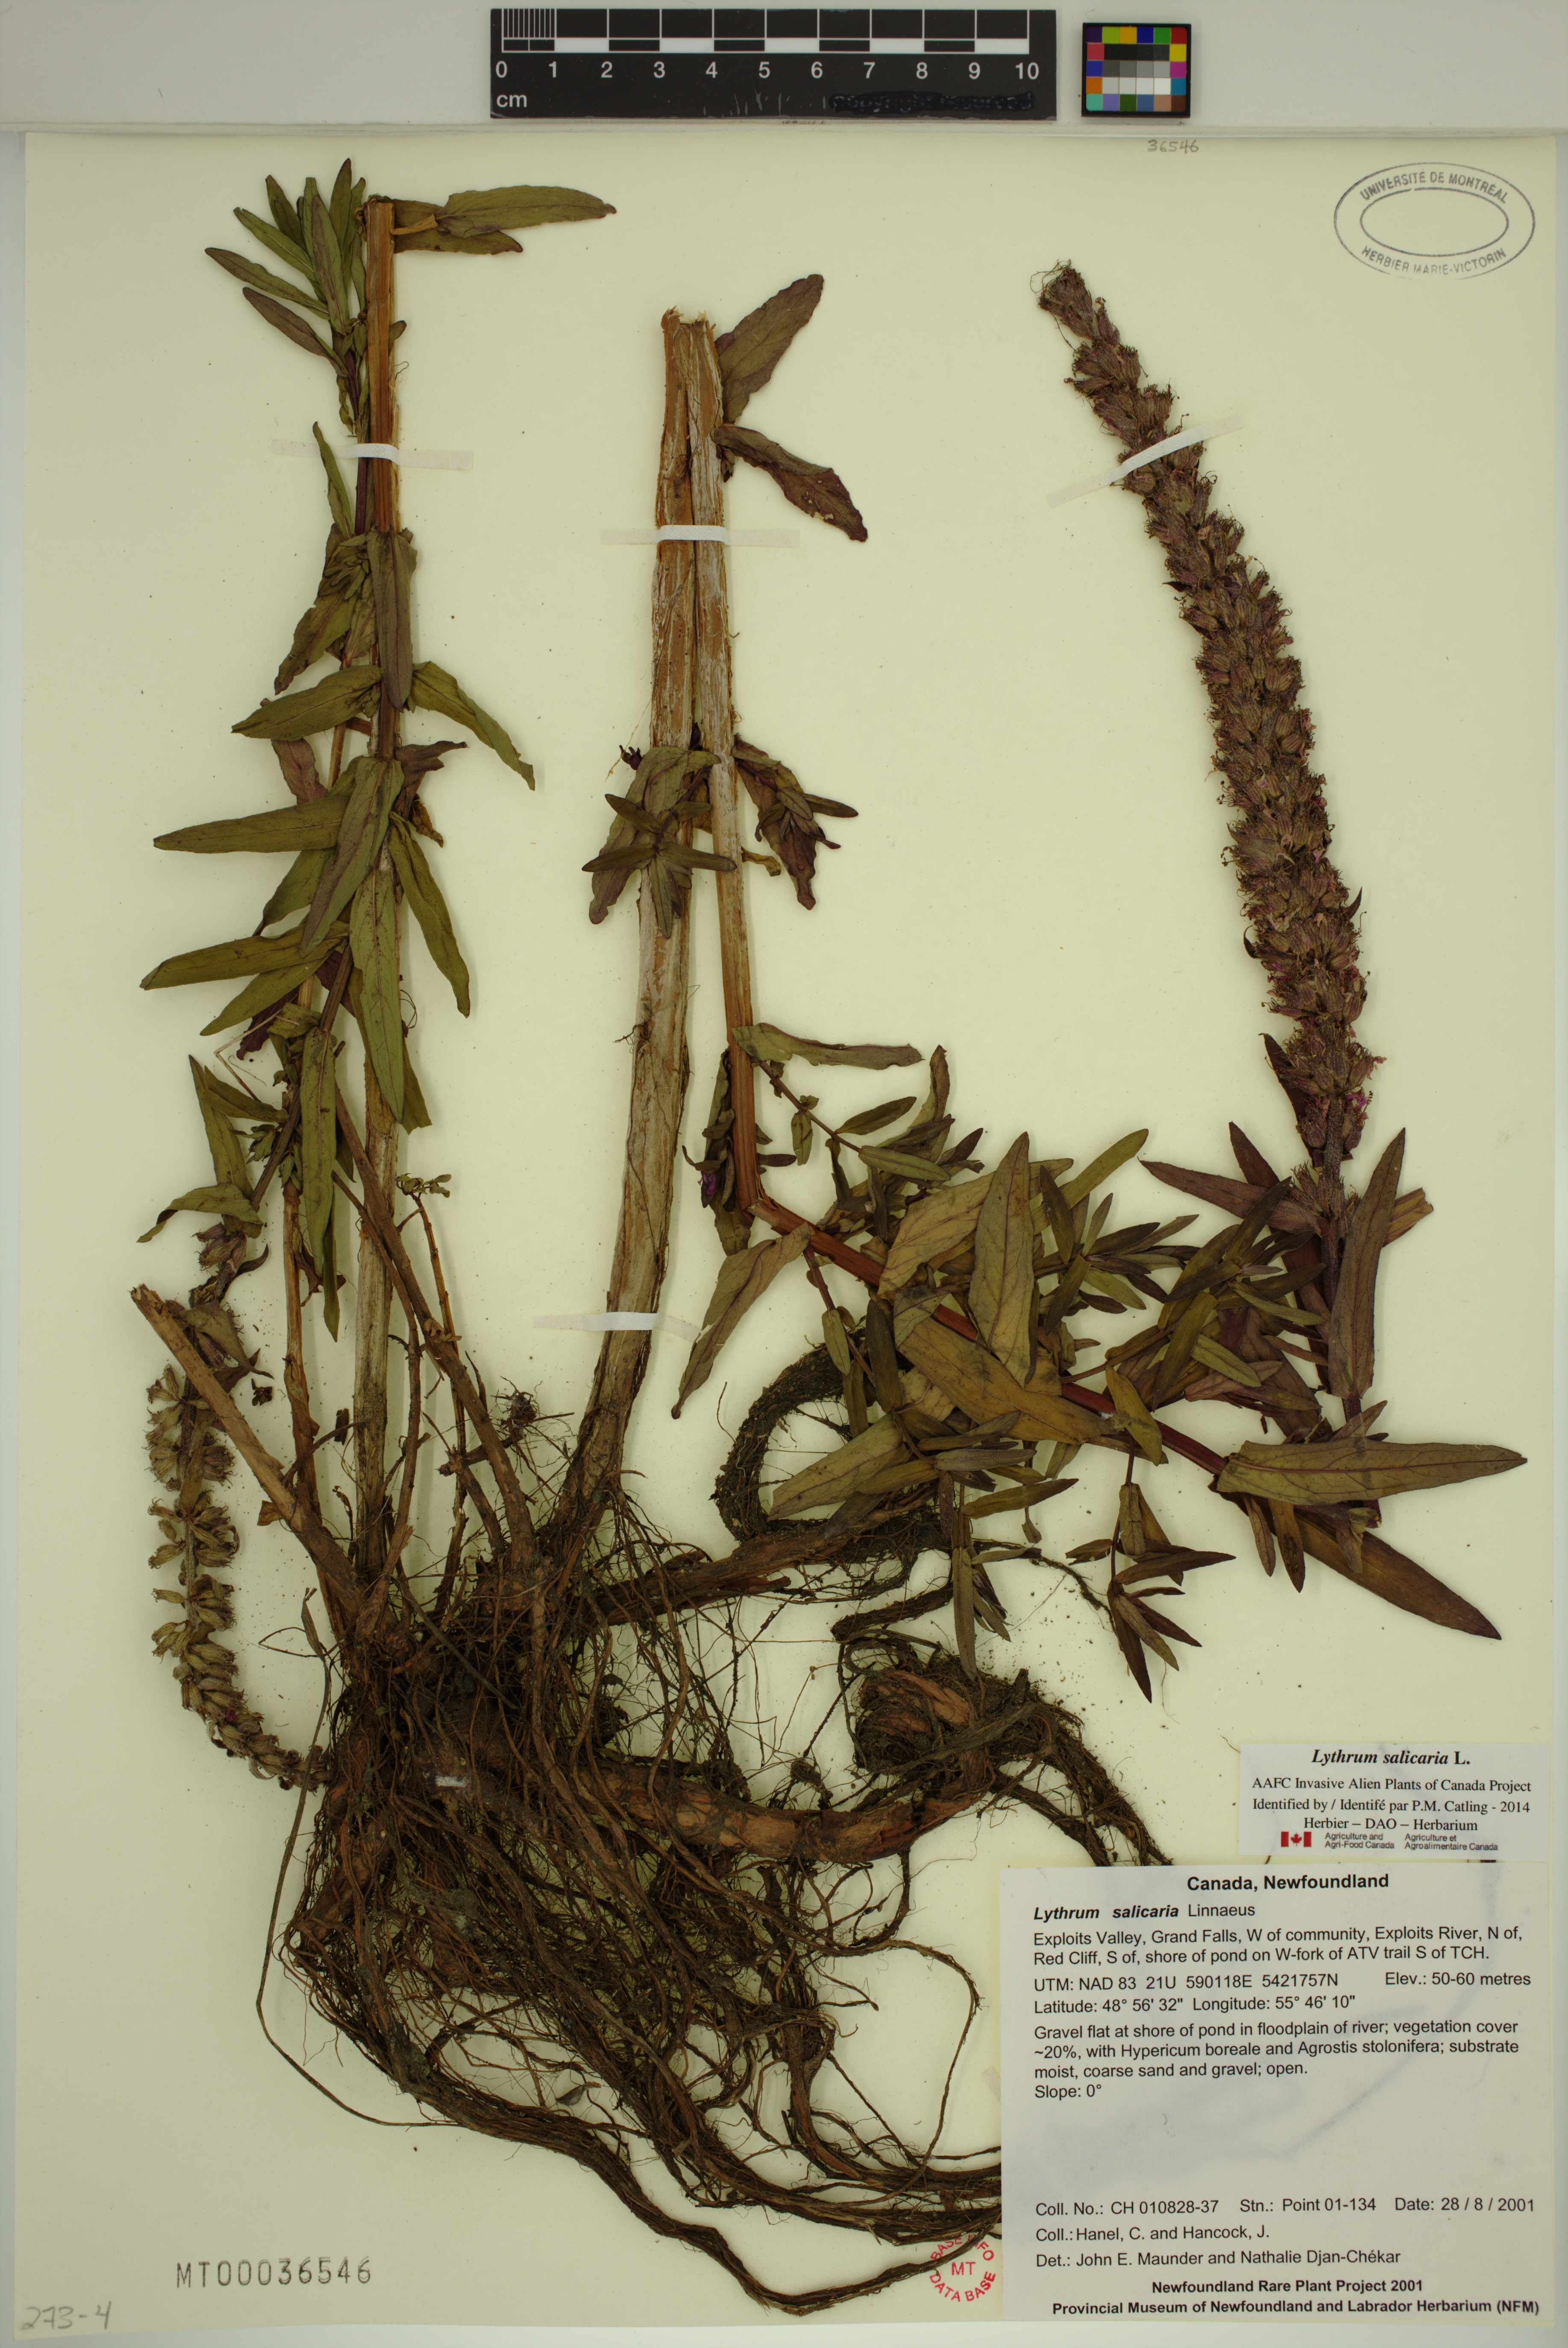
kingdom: Plantae
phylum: Tracheophyta
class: Magnoliopsida
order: Myrtales
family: Lythraceae
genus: Lythrum
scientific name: Lythrum salicaria
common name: Purple loosestrife
